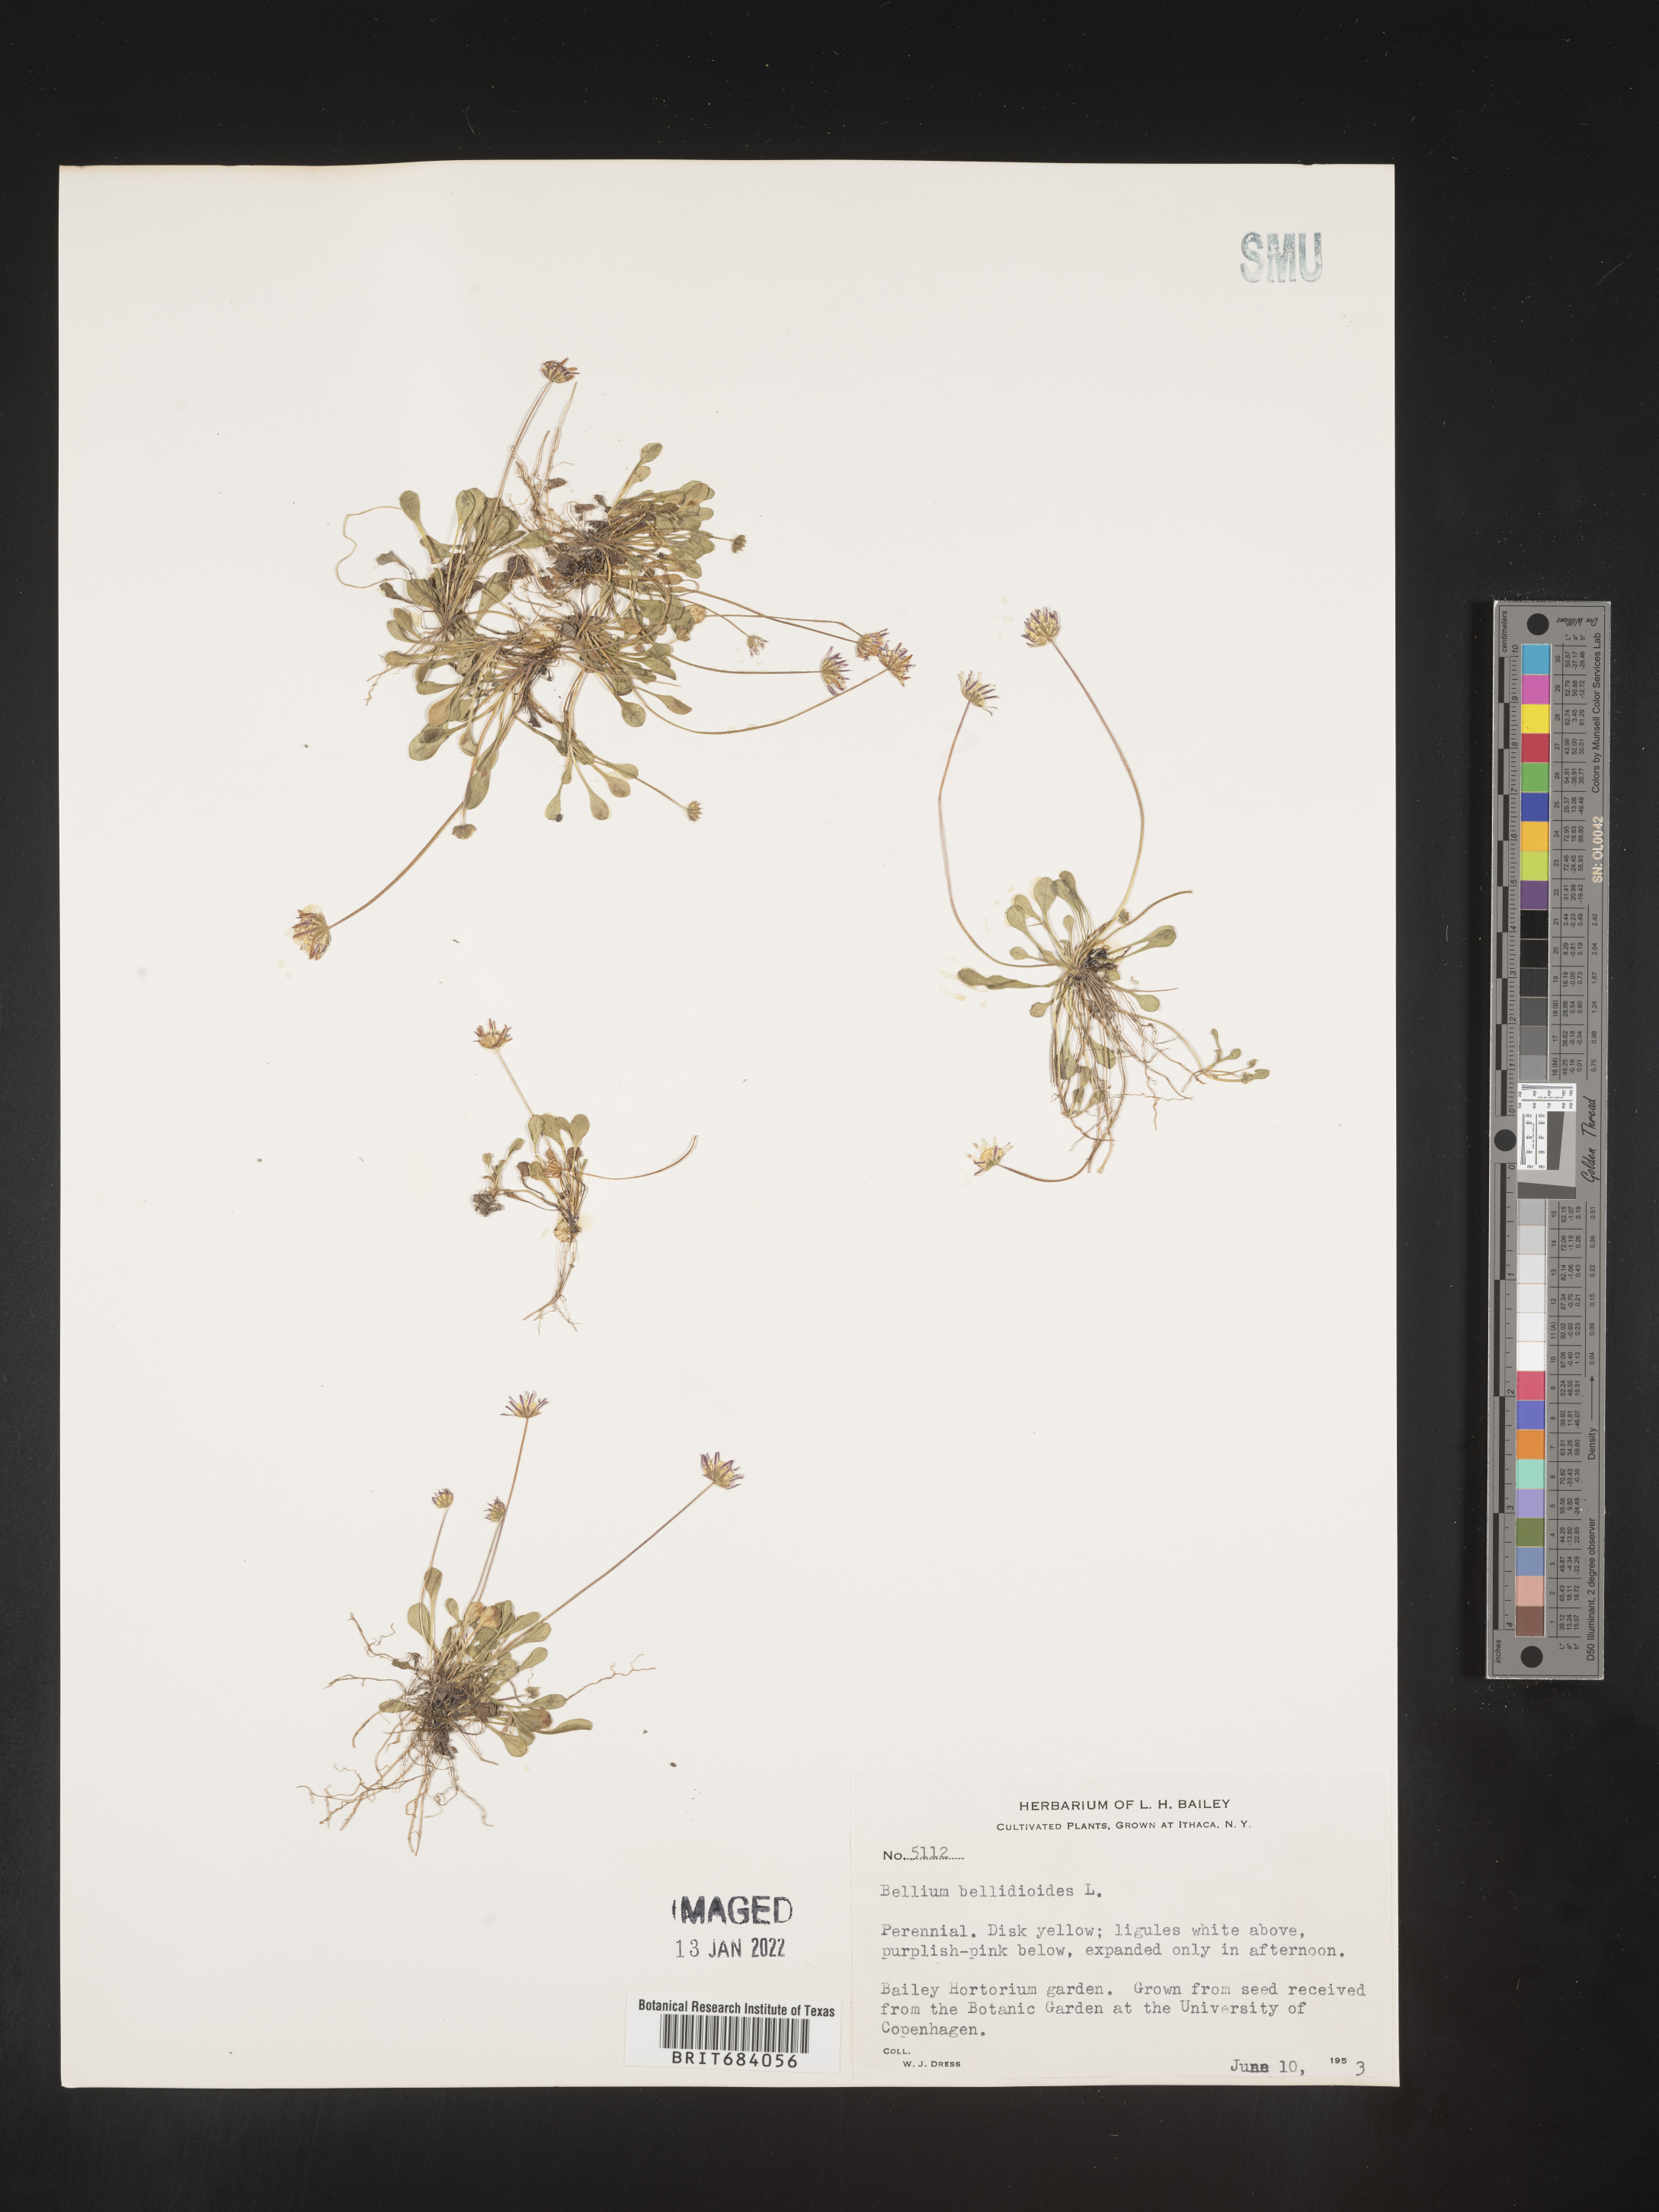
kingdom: Plantae
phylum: Tracheophyta
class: Magnoliopsida
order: Asterales
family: Asteraceae
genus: Bellium
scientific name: Bellium
